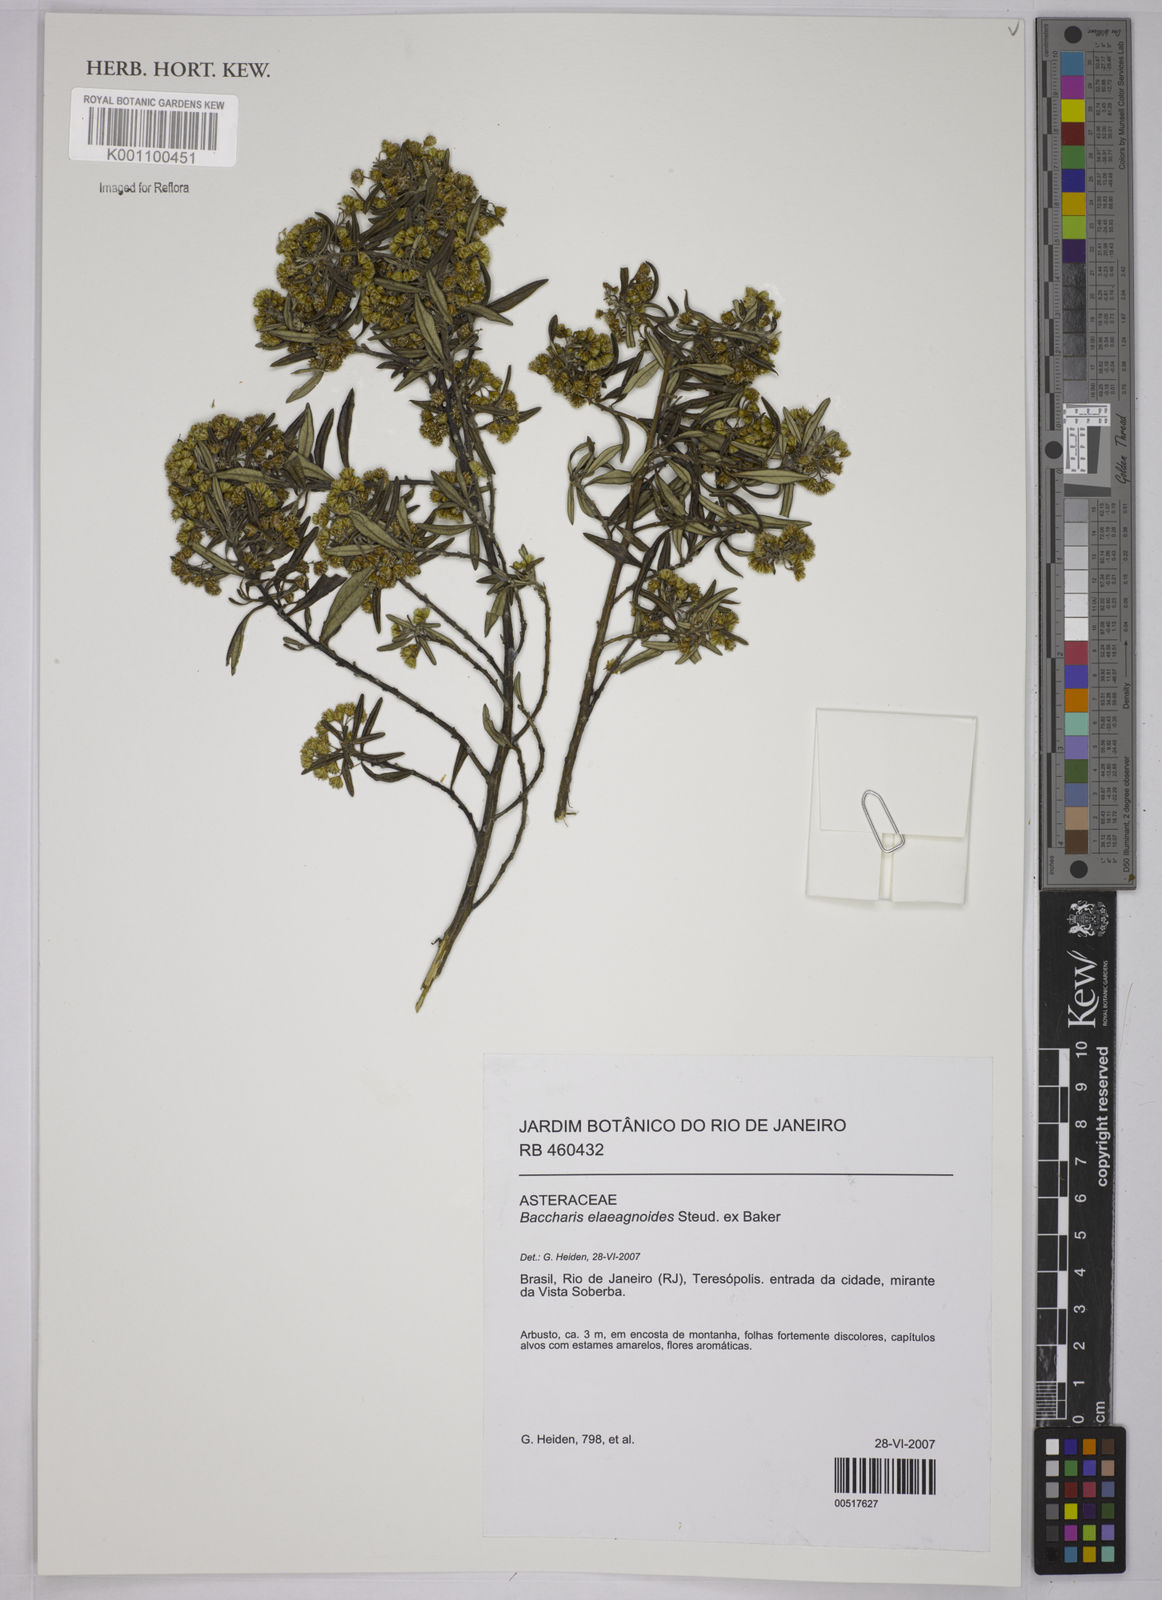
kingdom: Plantae
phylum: Tracheophyta
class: Magnoliopsida
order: Asterales
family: Asteraceae
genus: Baccharis
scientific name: Baccharis
